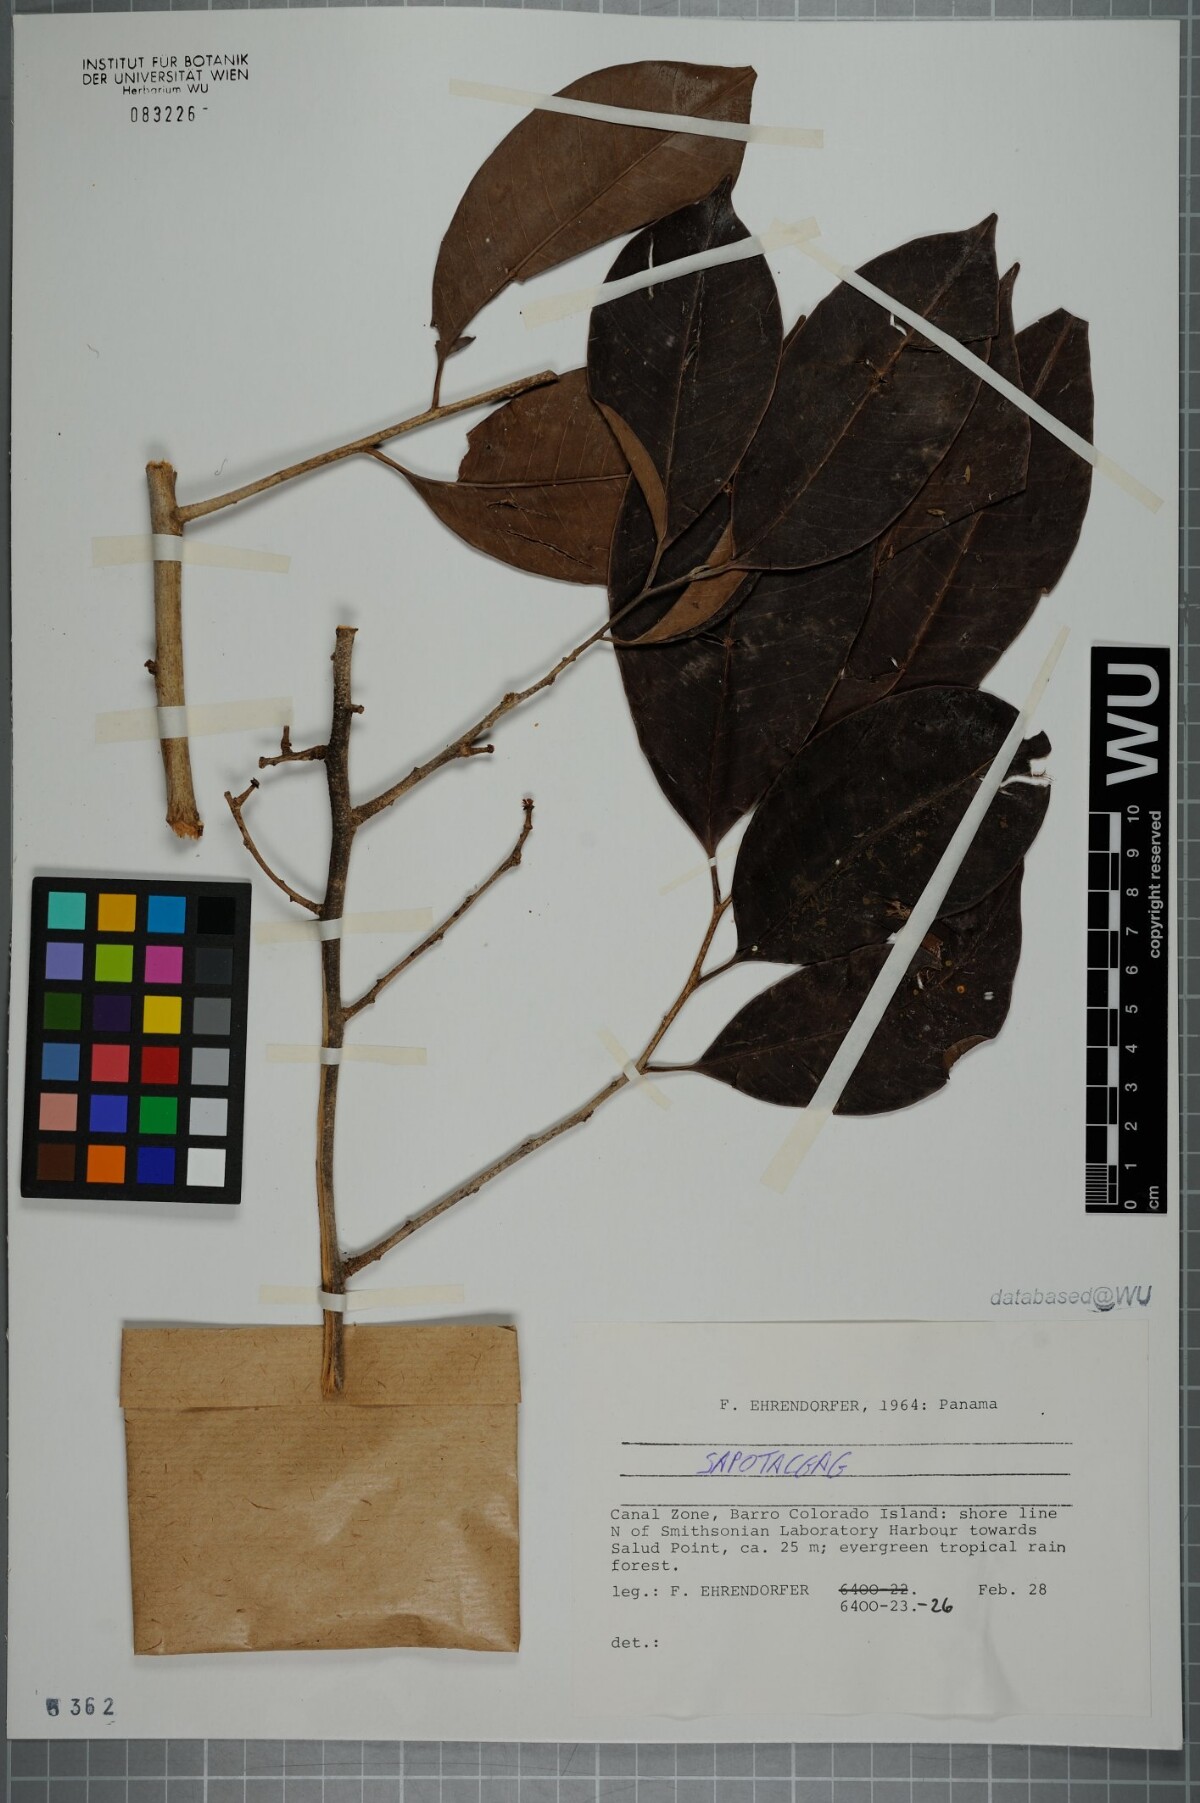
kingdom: Plantae
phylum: Tracheophyta
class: Magnoliopsida
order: Ericales
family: Sapotaceae
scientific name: Sapotaceae
